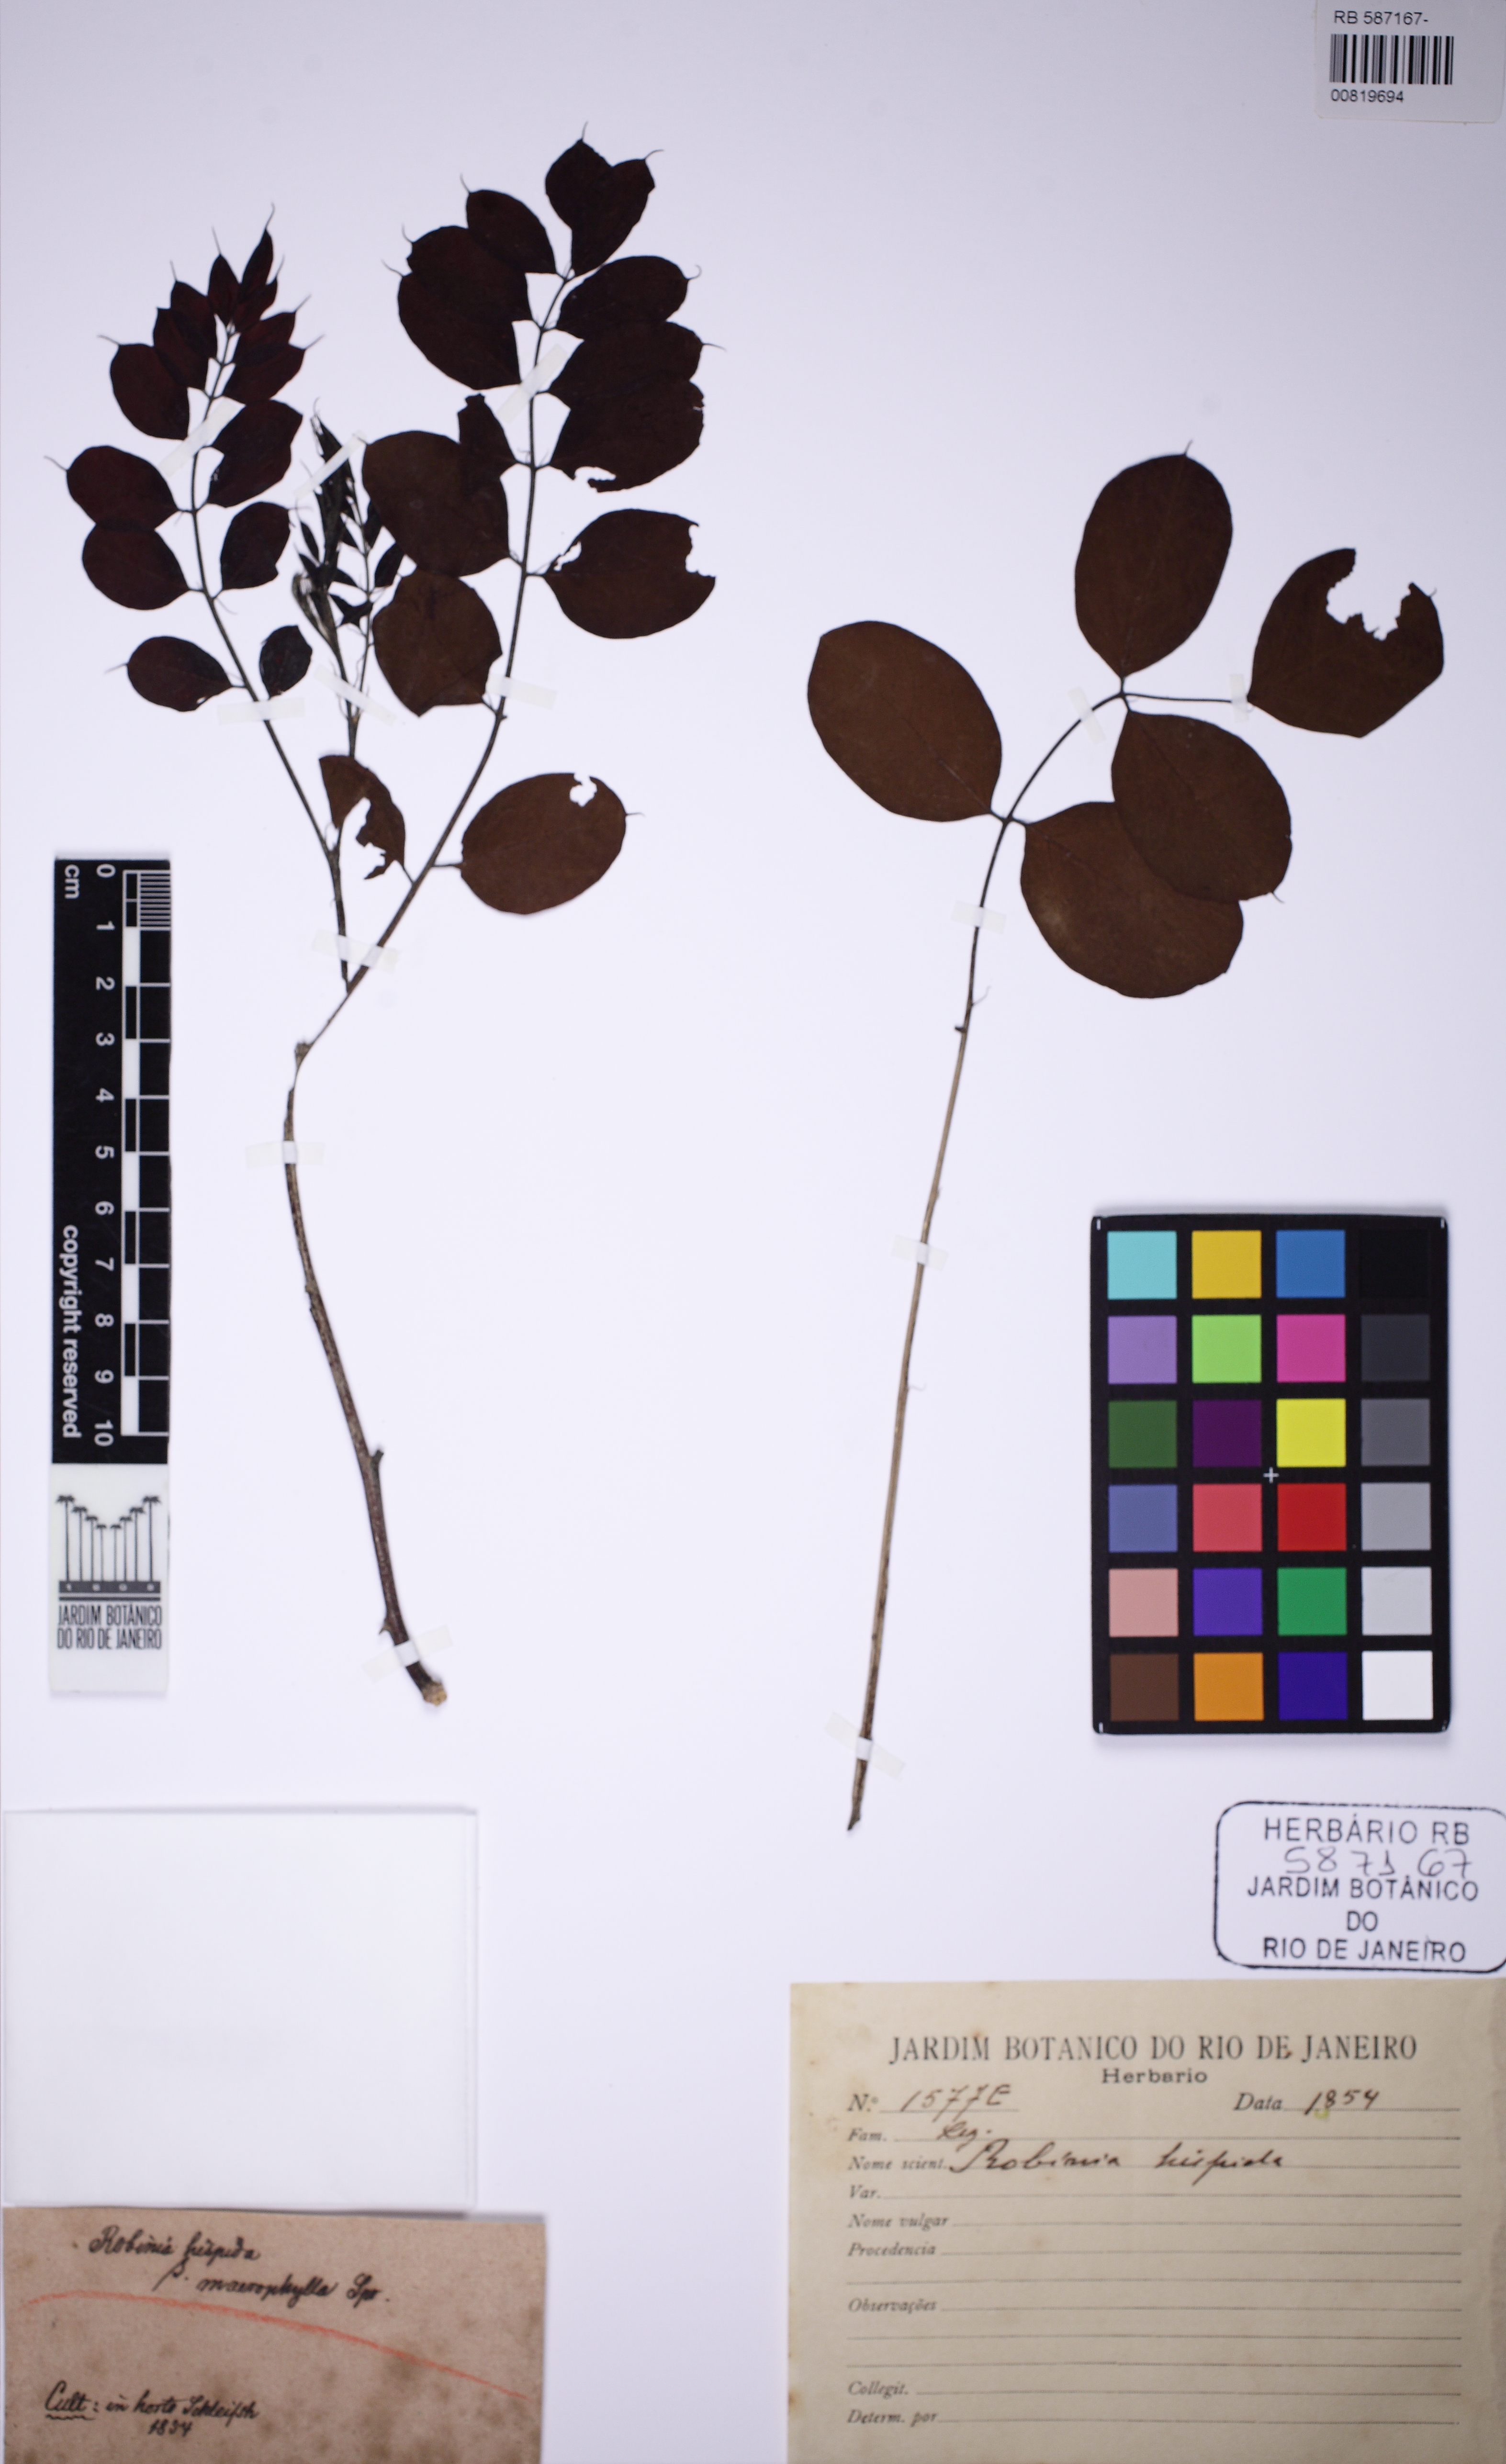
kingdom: Plantae
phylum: Tracheophyta
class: Magnoliopsida
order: Fabales
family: Fabaceae
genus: Robinia
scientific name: Robinia hispida
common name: Bristly locust
